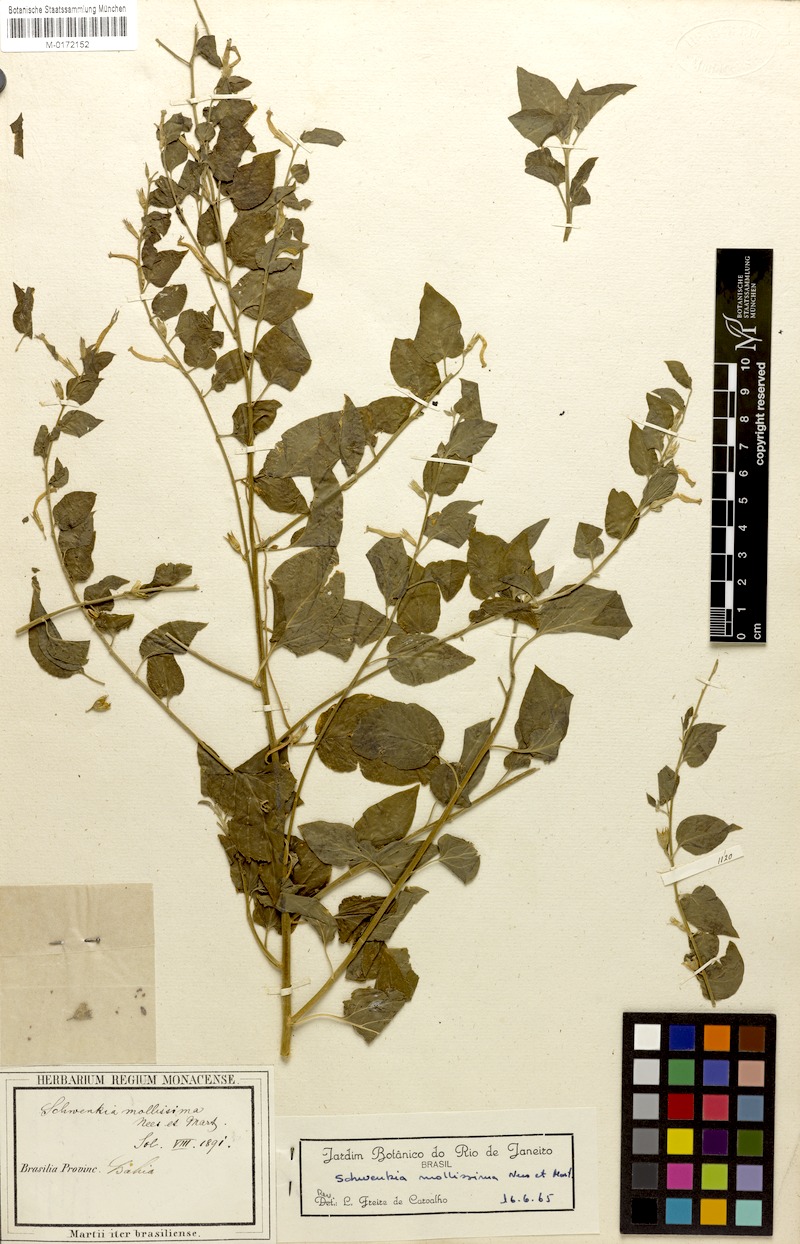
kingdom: Plantae
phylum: Tracheophyta
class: Magnoliopsida
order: Solanales
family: Solanaceae
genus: Schwenckia
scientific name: Schwenckia mollissima
